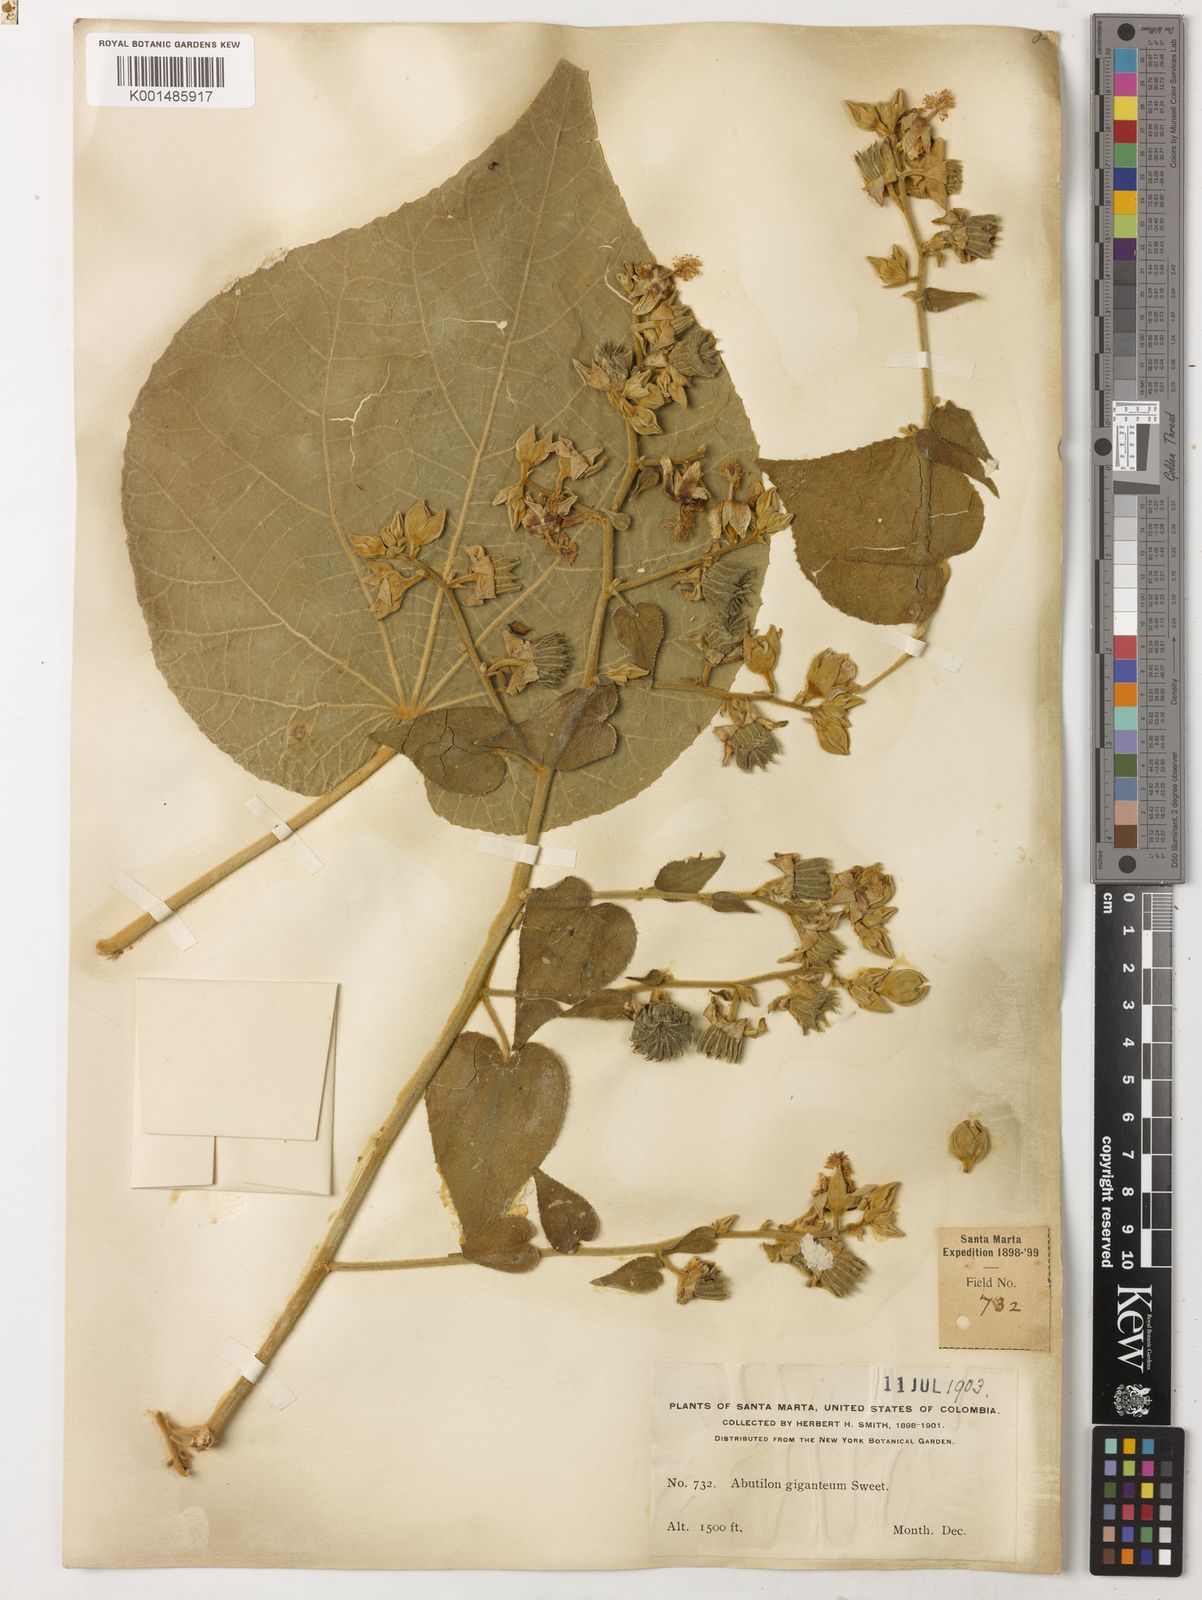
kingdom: Plantae
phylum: Tracheophyta
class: Magnoliopsida
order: Malvales
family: Malvaceae
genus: Abutilon
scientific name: Abutilon giganteum
